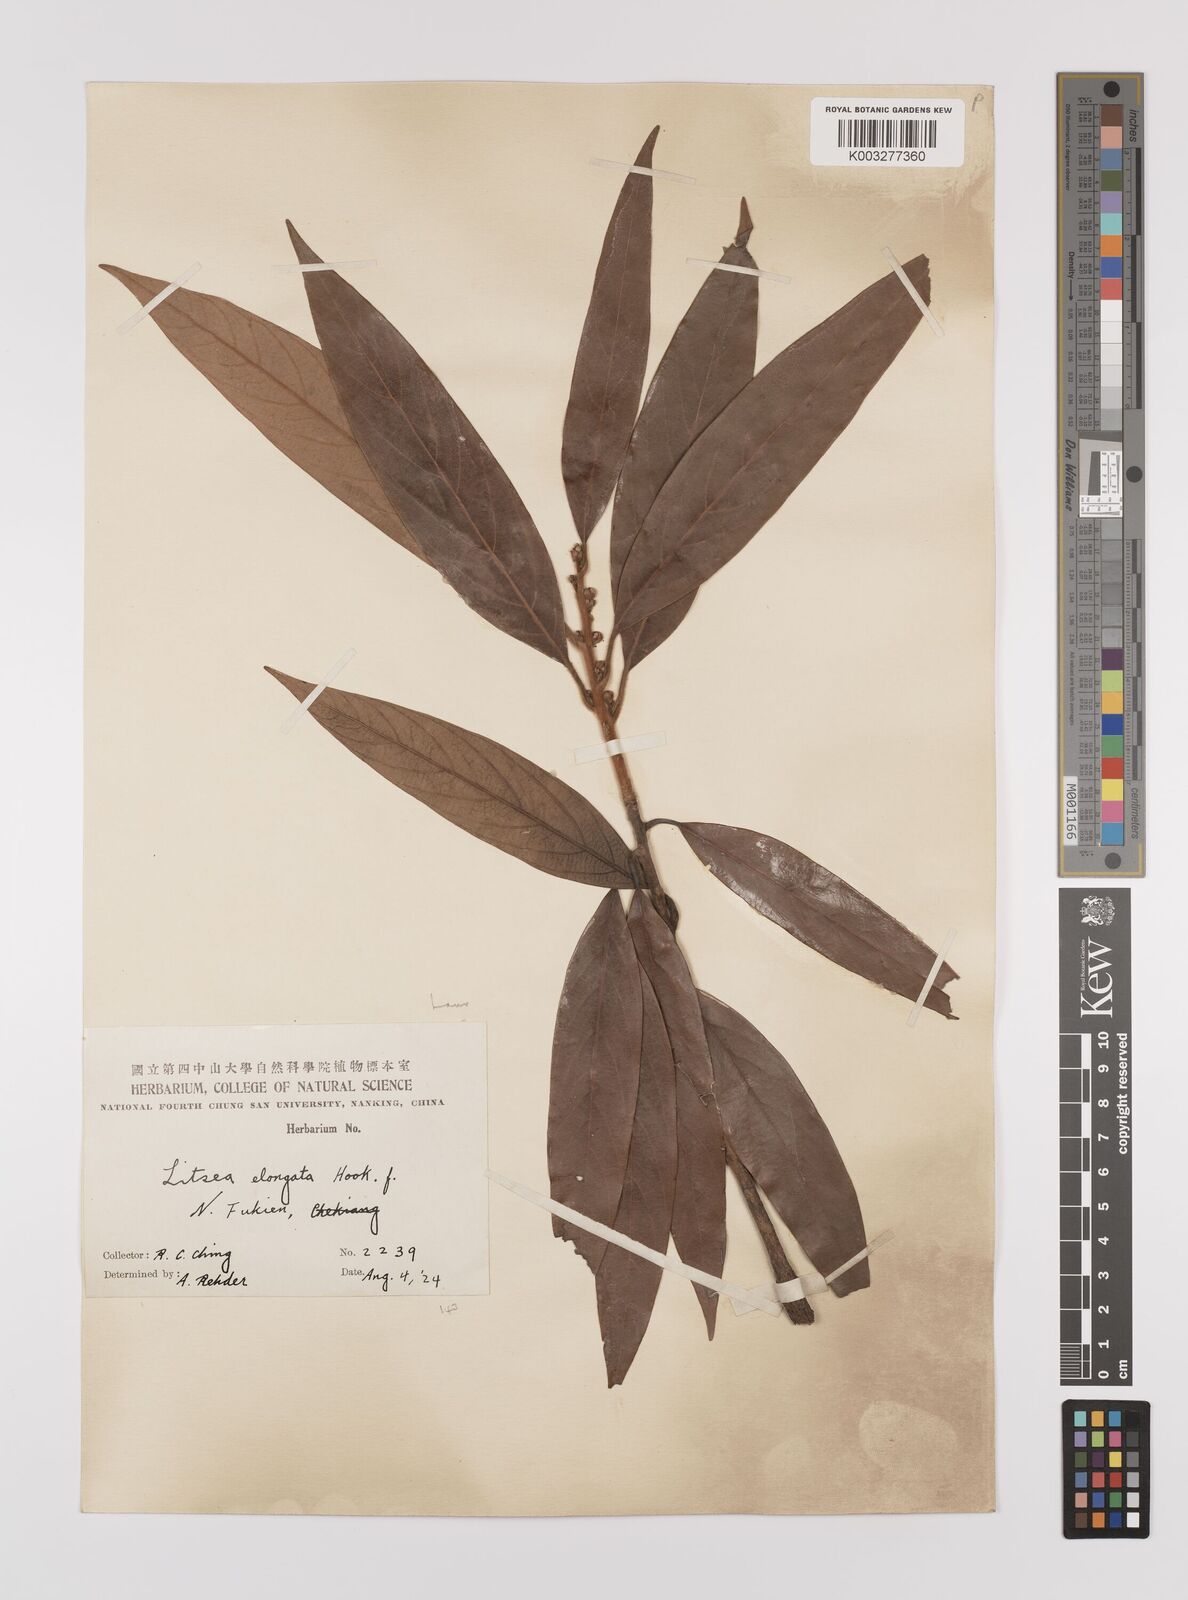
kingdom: Plantae
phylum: Tracheophyta
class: Magnoliopsida
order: Laurales
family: Lauraceae
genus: Litsea
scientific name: Litsea elongata
